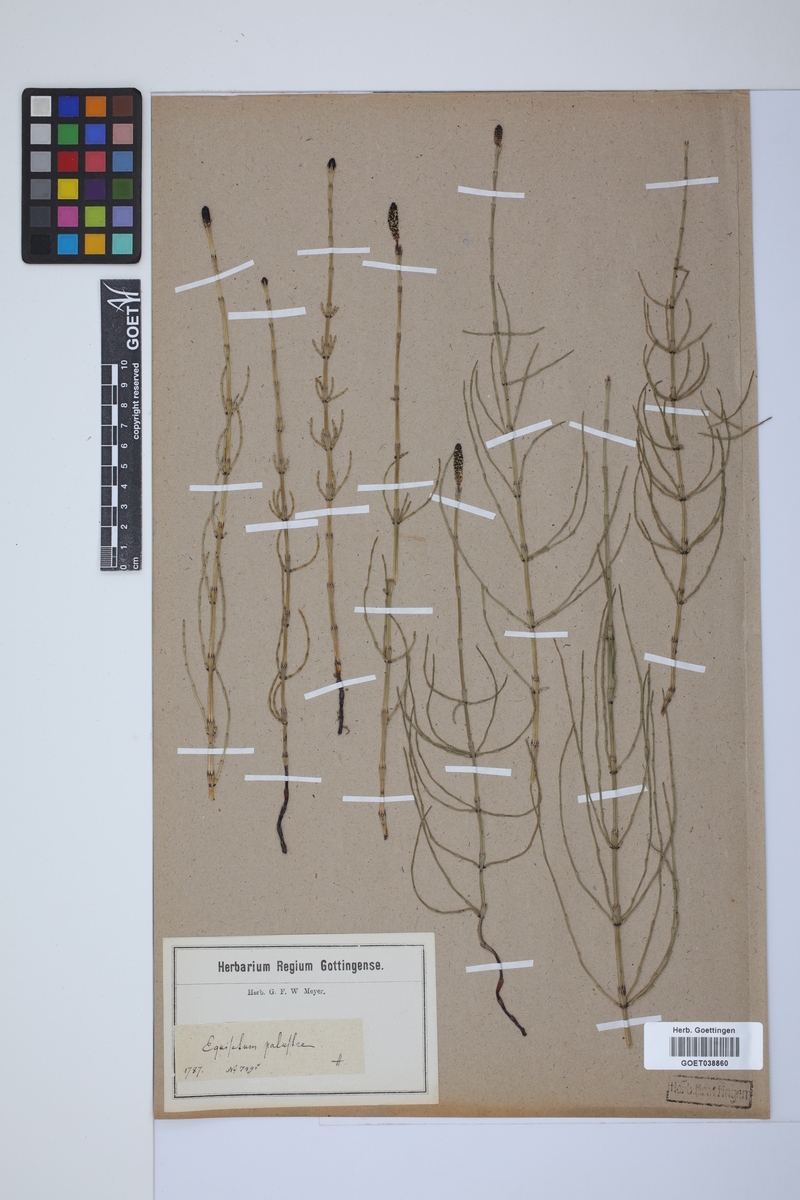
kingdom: Plantae
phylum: Tracheophyta
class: Polypodiopsida
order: Equisetales
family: Equisetaceae
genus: Equisetum
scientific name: Equisetum palustre
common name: Marsh horsetail
